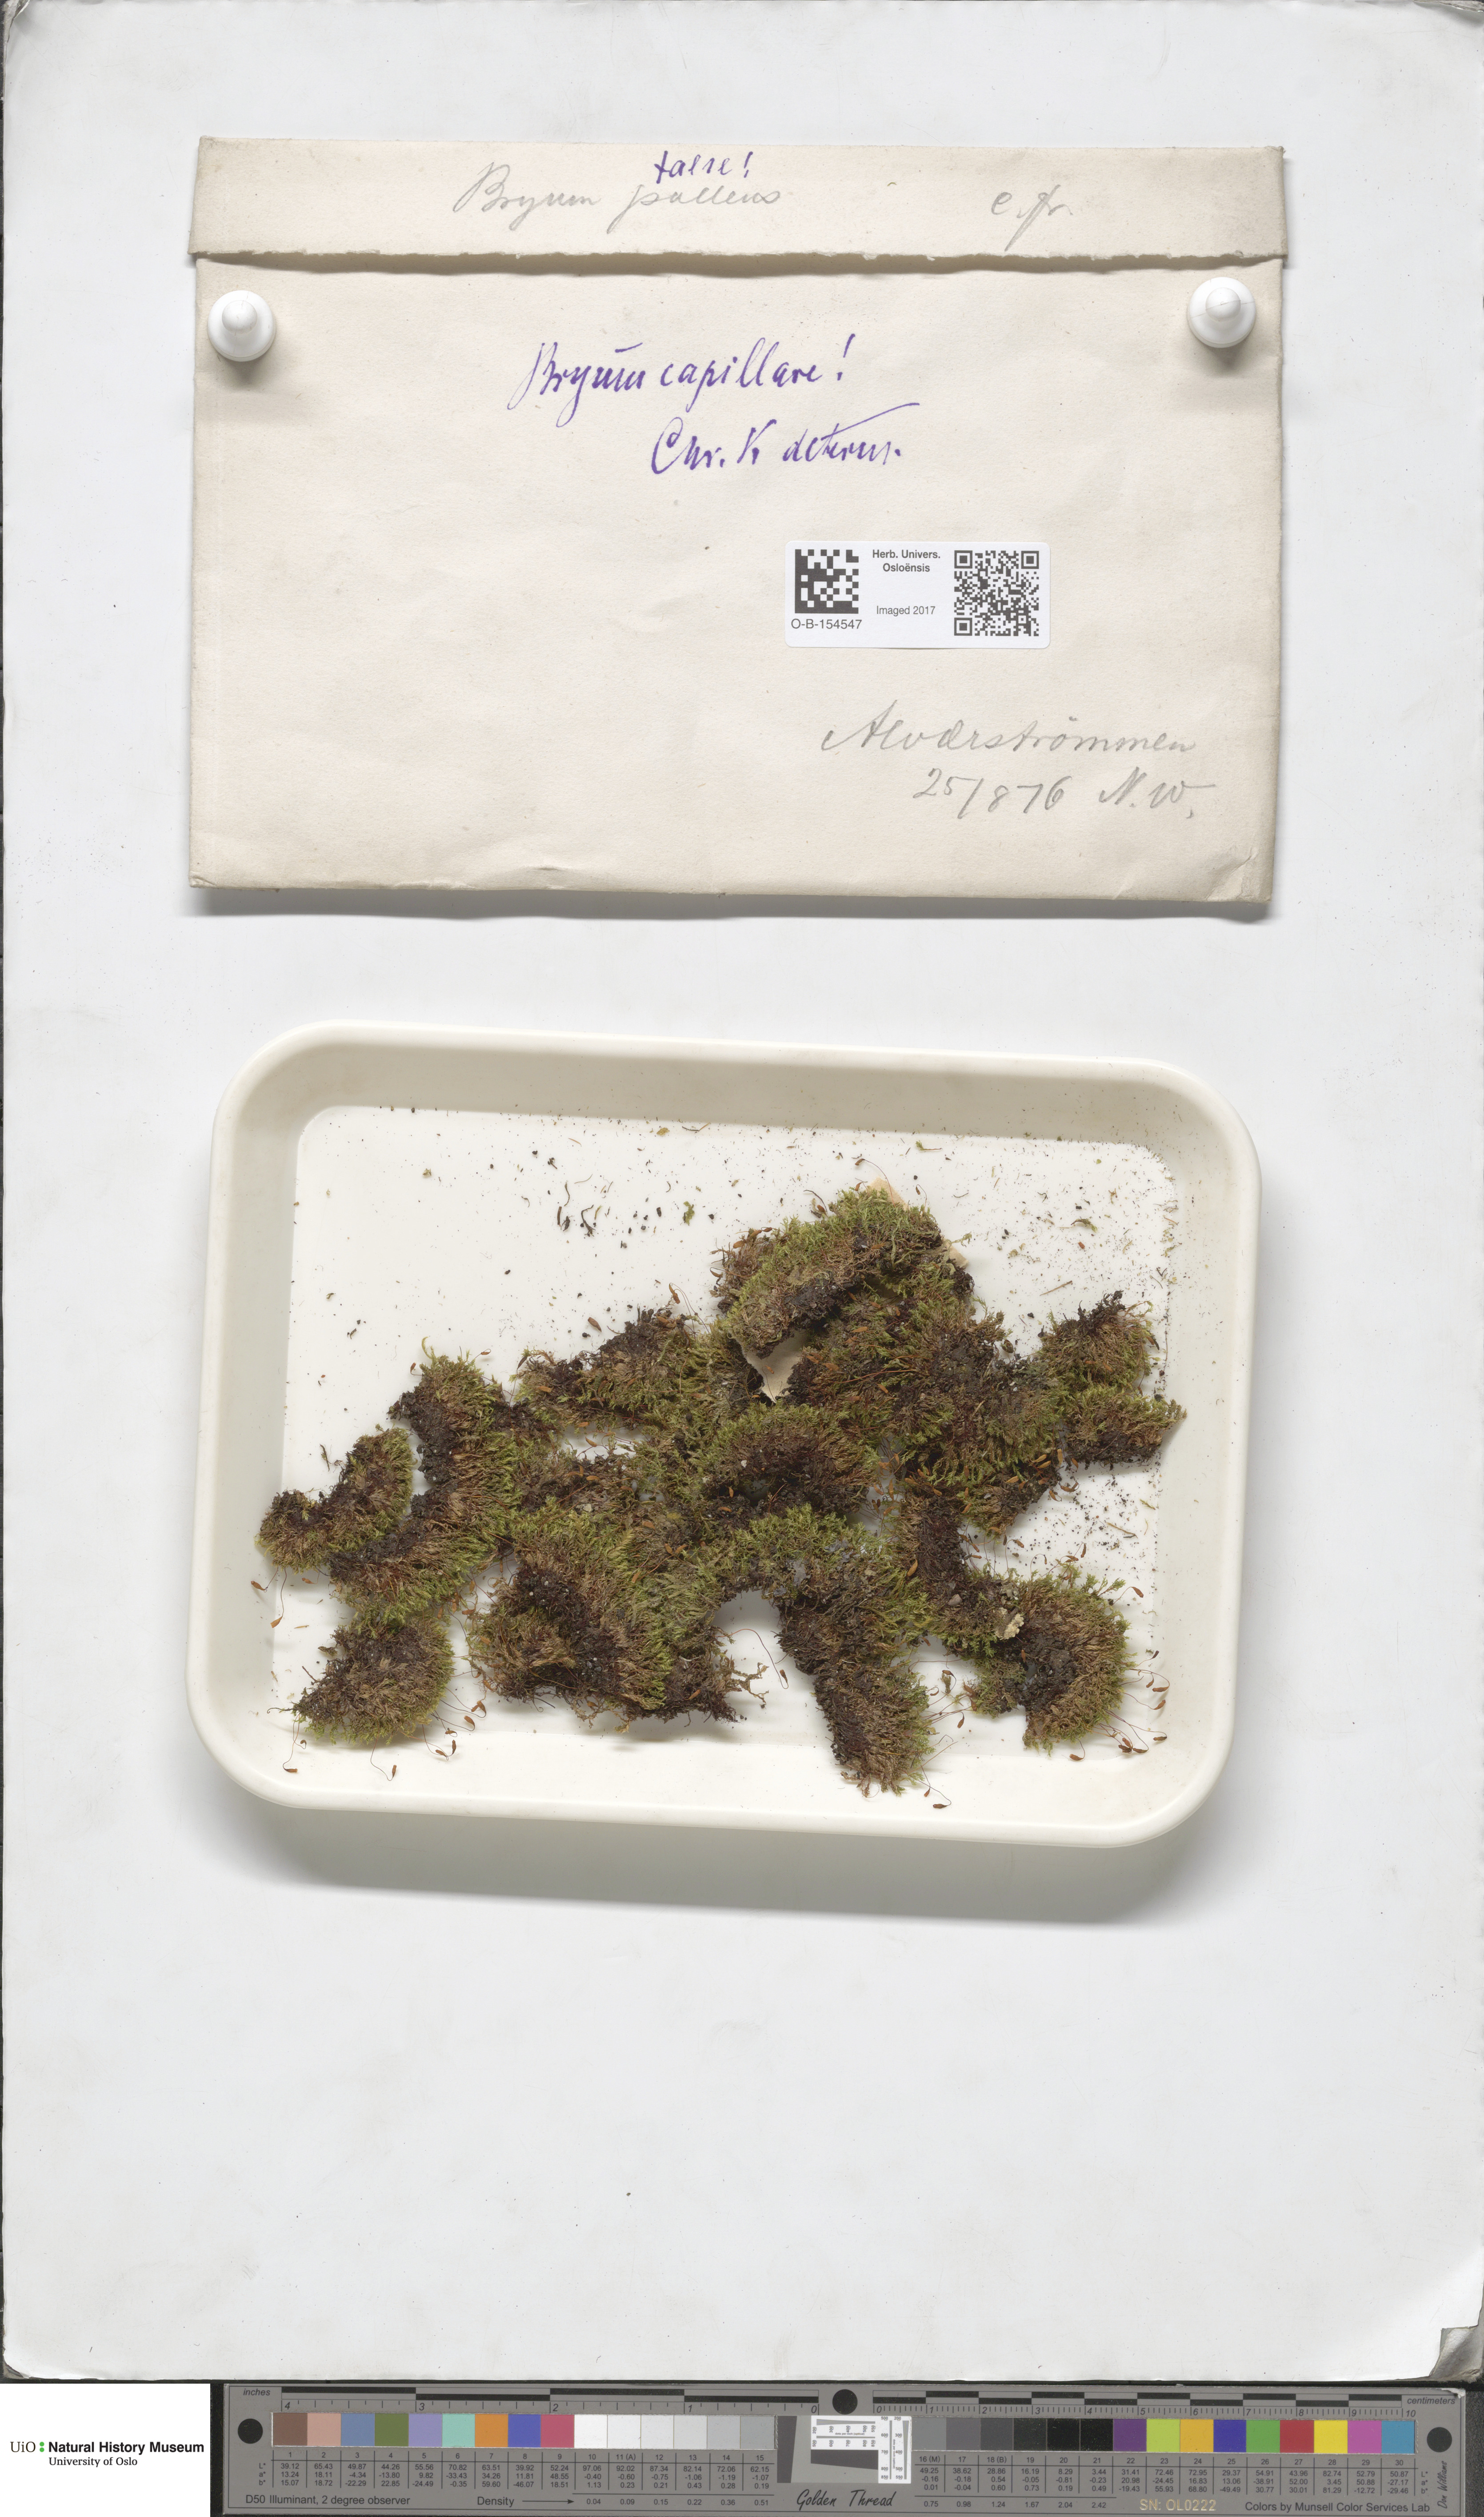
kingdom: Plantae
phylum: Bryophyta
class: Bryopsida
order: Bryales
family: Bryaceae
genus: Rosulabryum
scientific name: Rosulabryum capillare
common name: Capillary thread-moss
